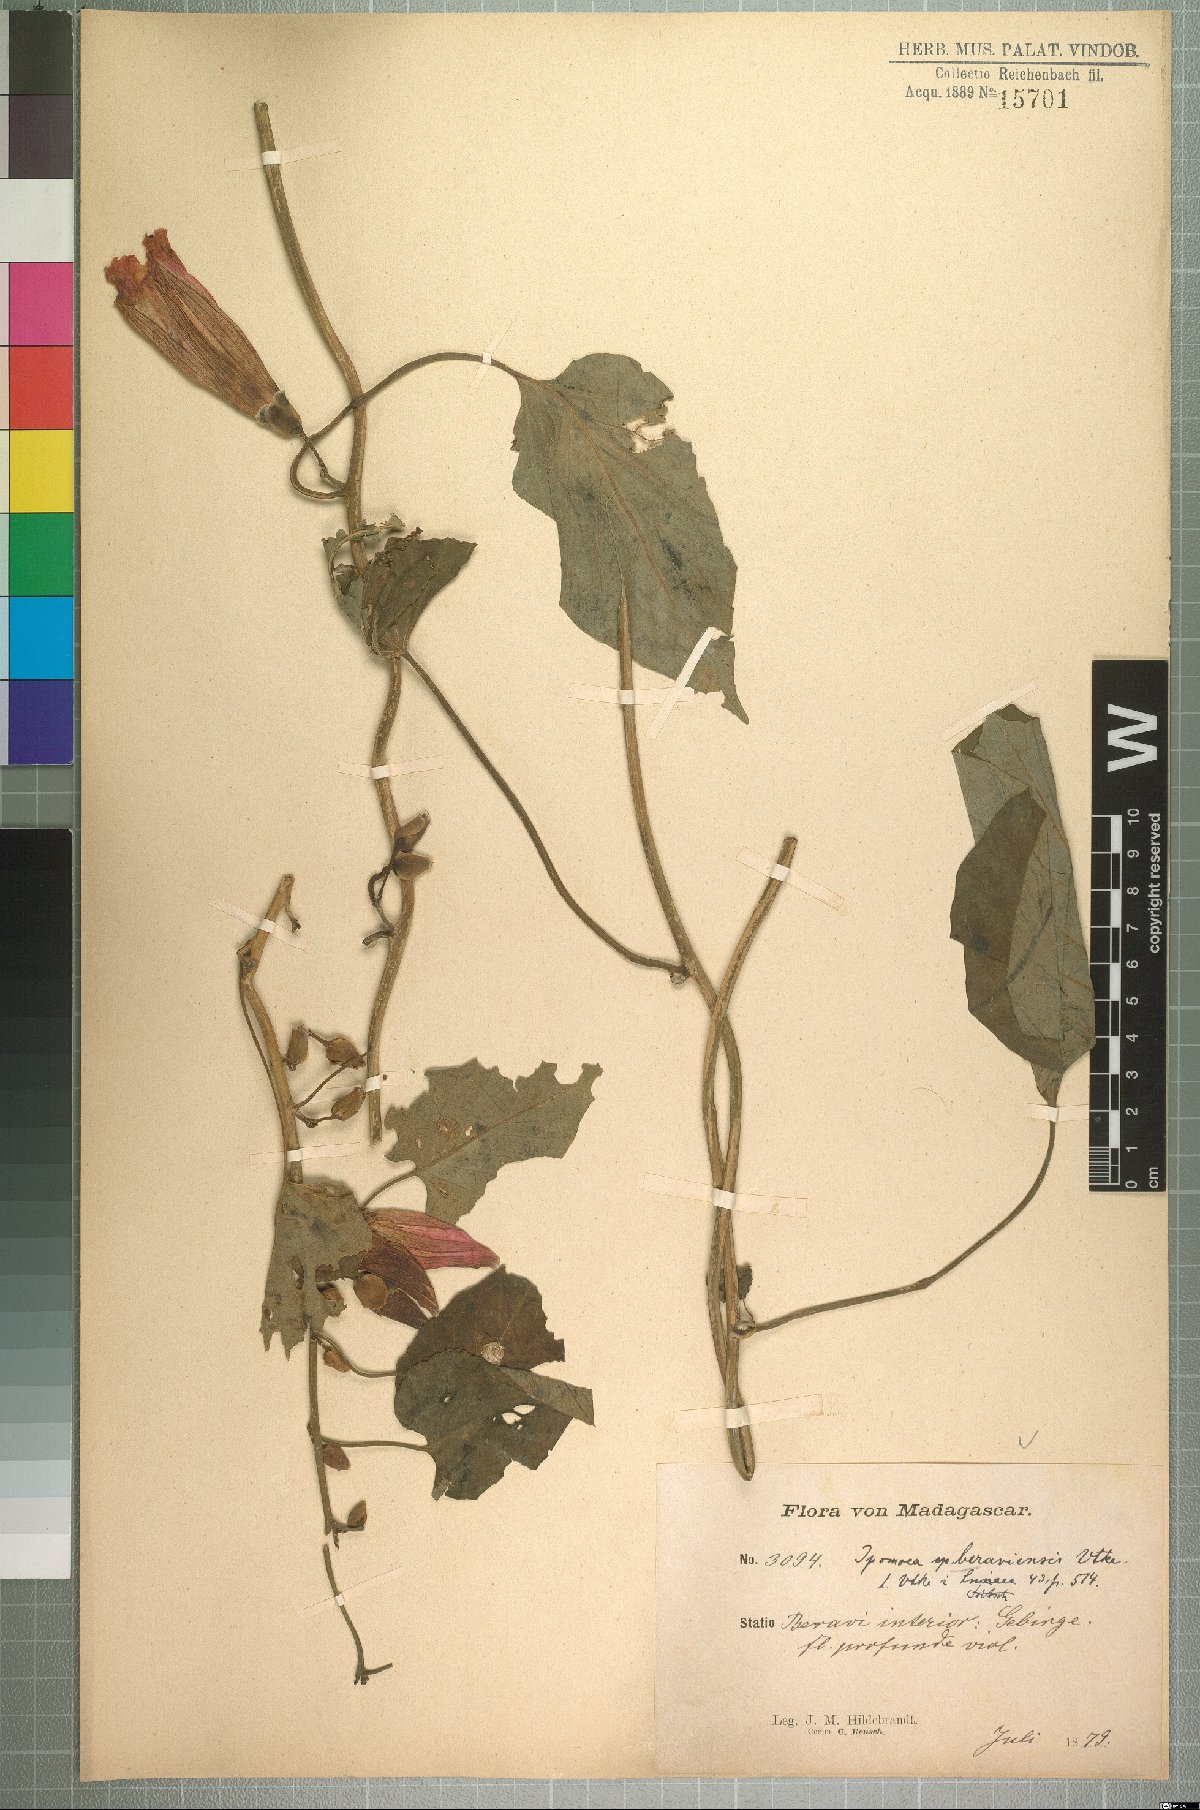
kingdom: Plantae
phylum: Tracheophyta
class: Magnoliopsida
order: Solanales
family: Convolvulaceae
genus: Stictocardia
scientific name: Stictocardia beraviensis
